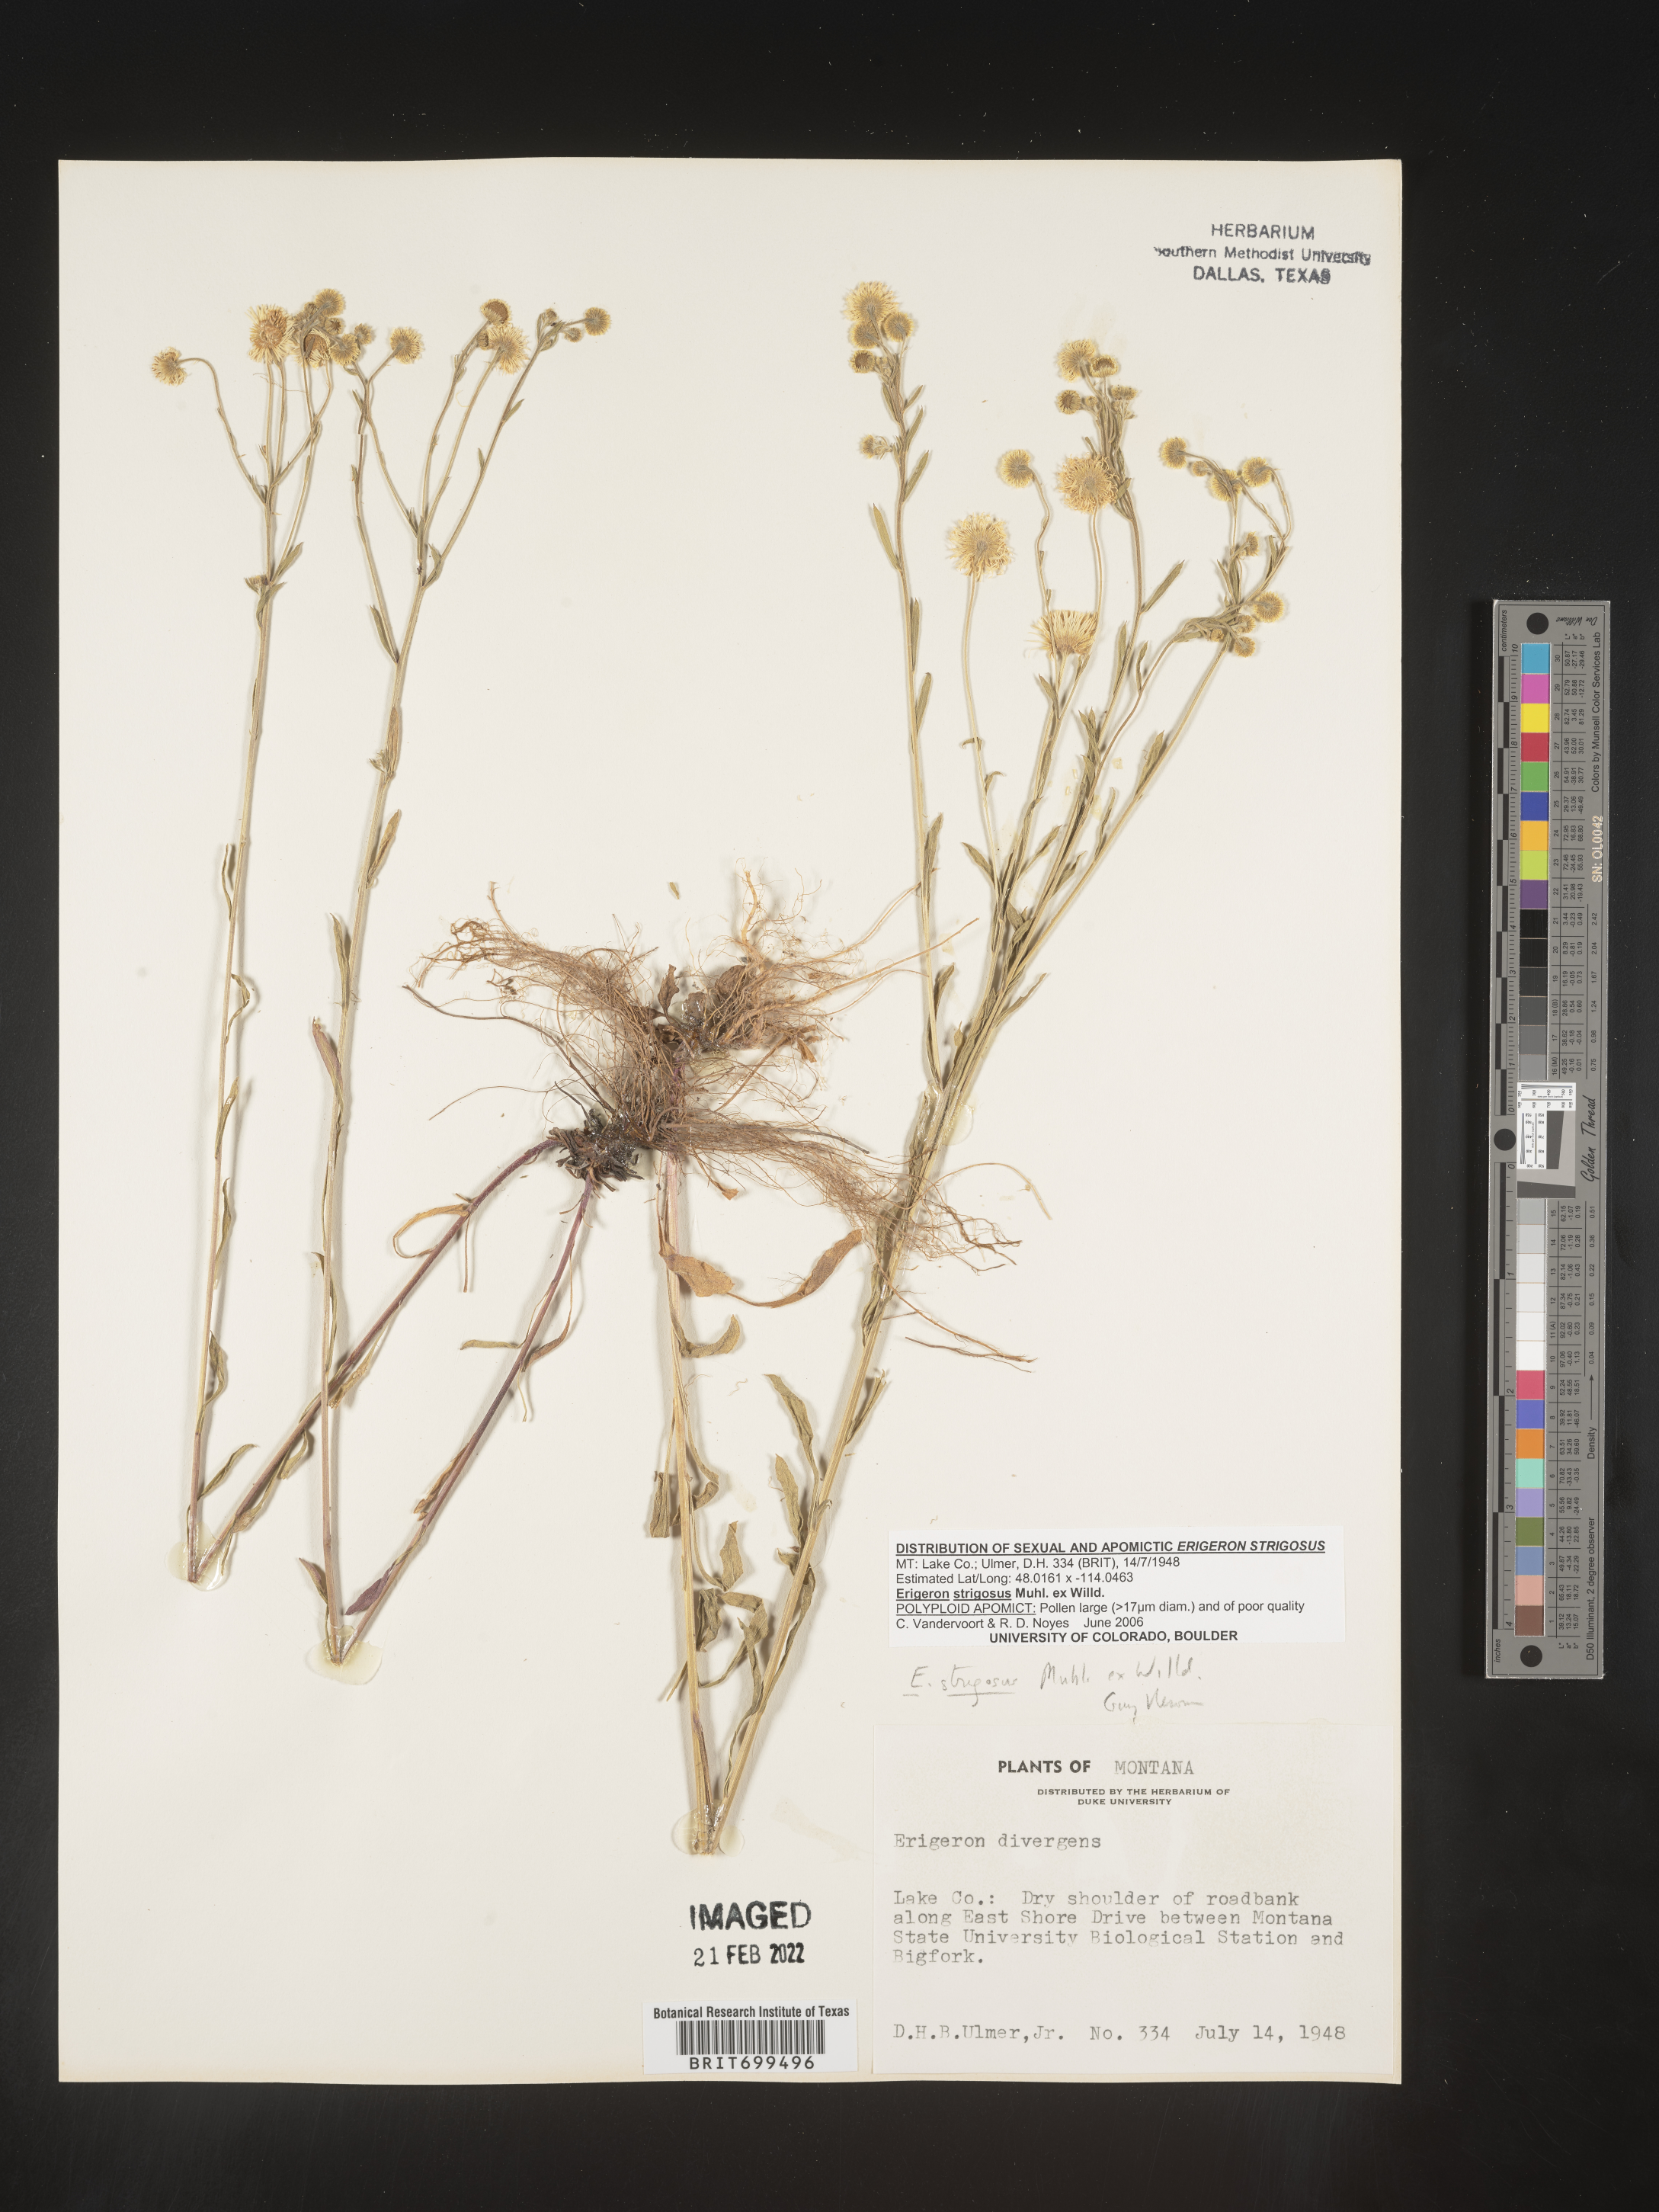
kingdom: Plantae
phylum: Tracheophyta
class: Magnoliopsida
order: Asterales
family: Asteraceae
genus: Erigeron
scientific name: Erigeron strigosus
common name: Common eastern fleabane
